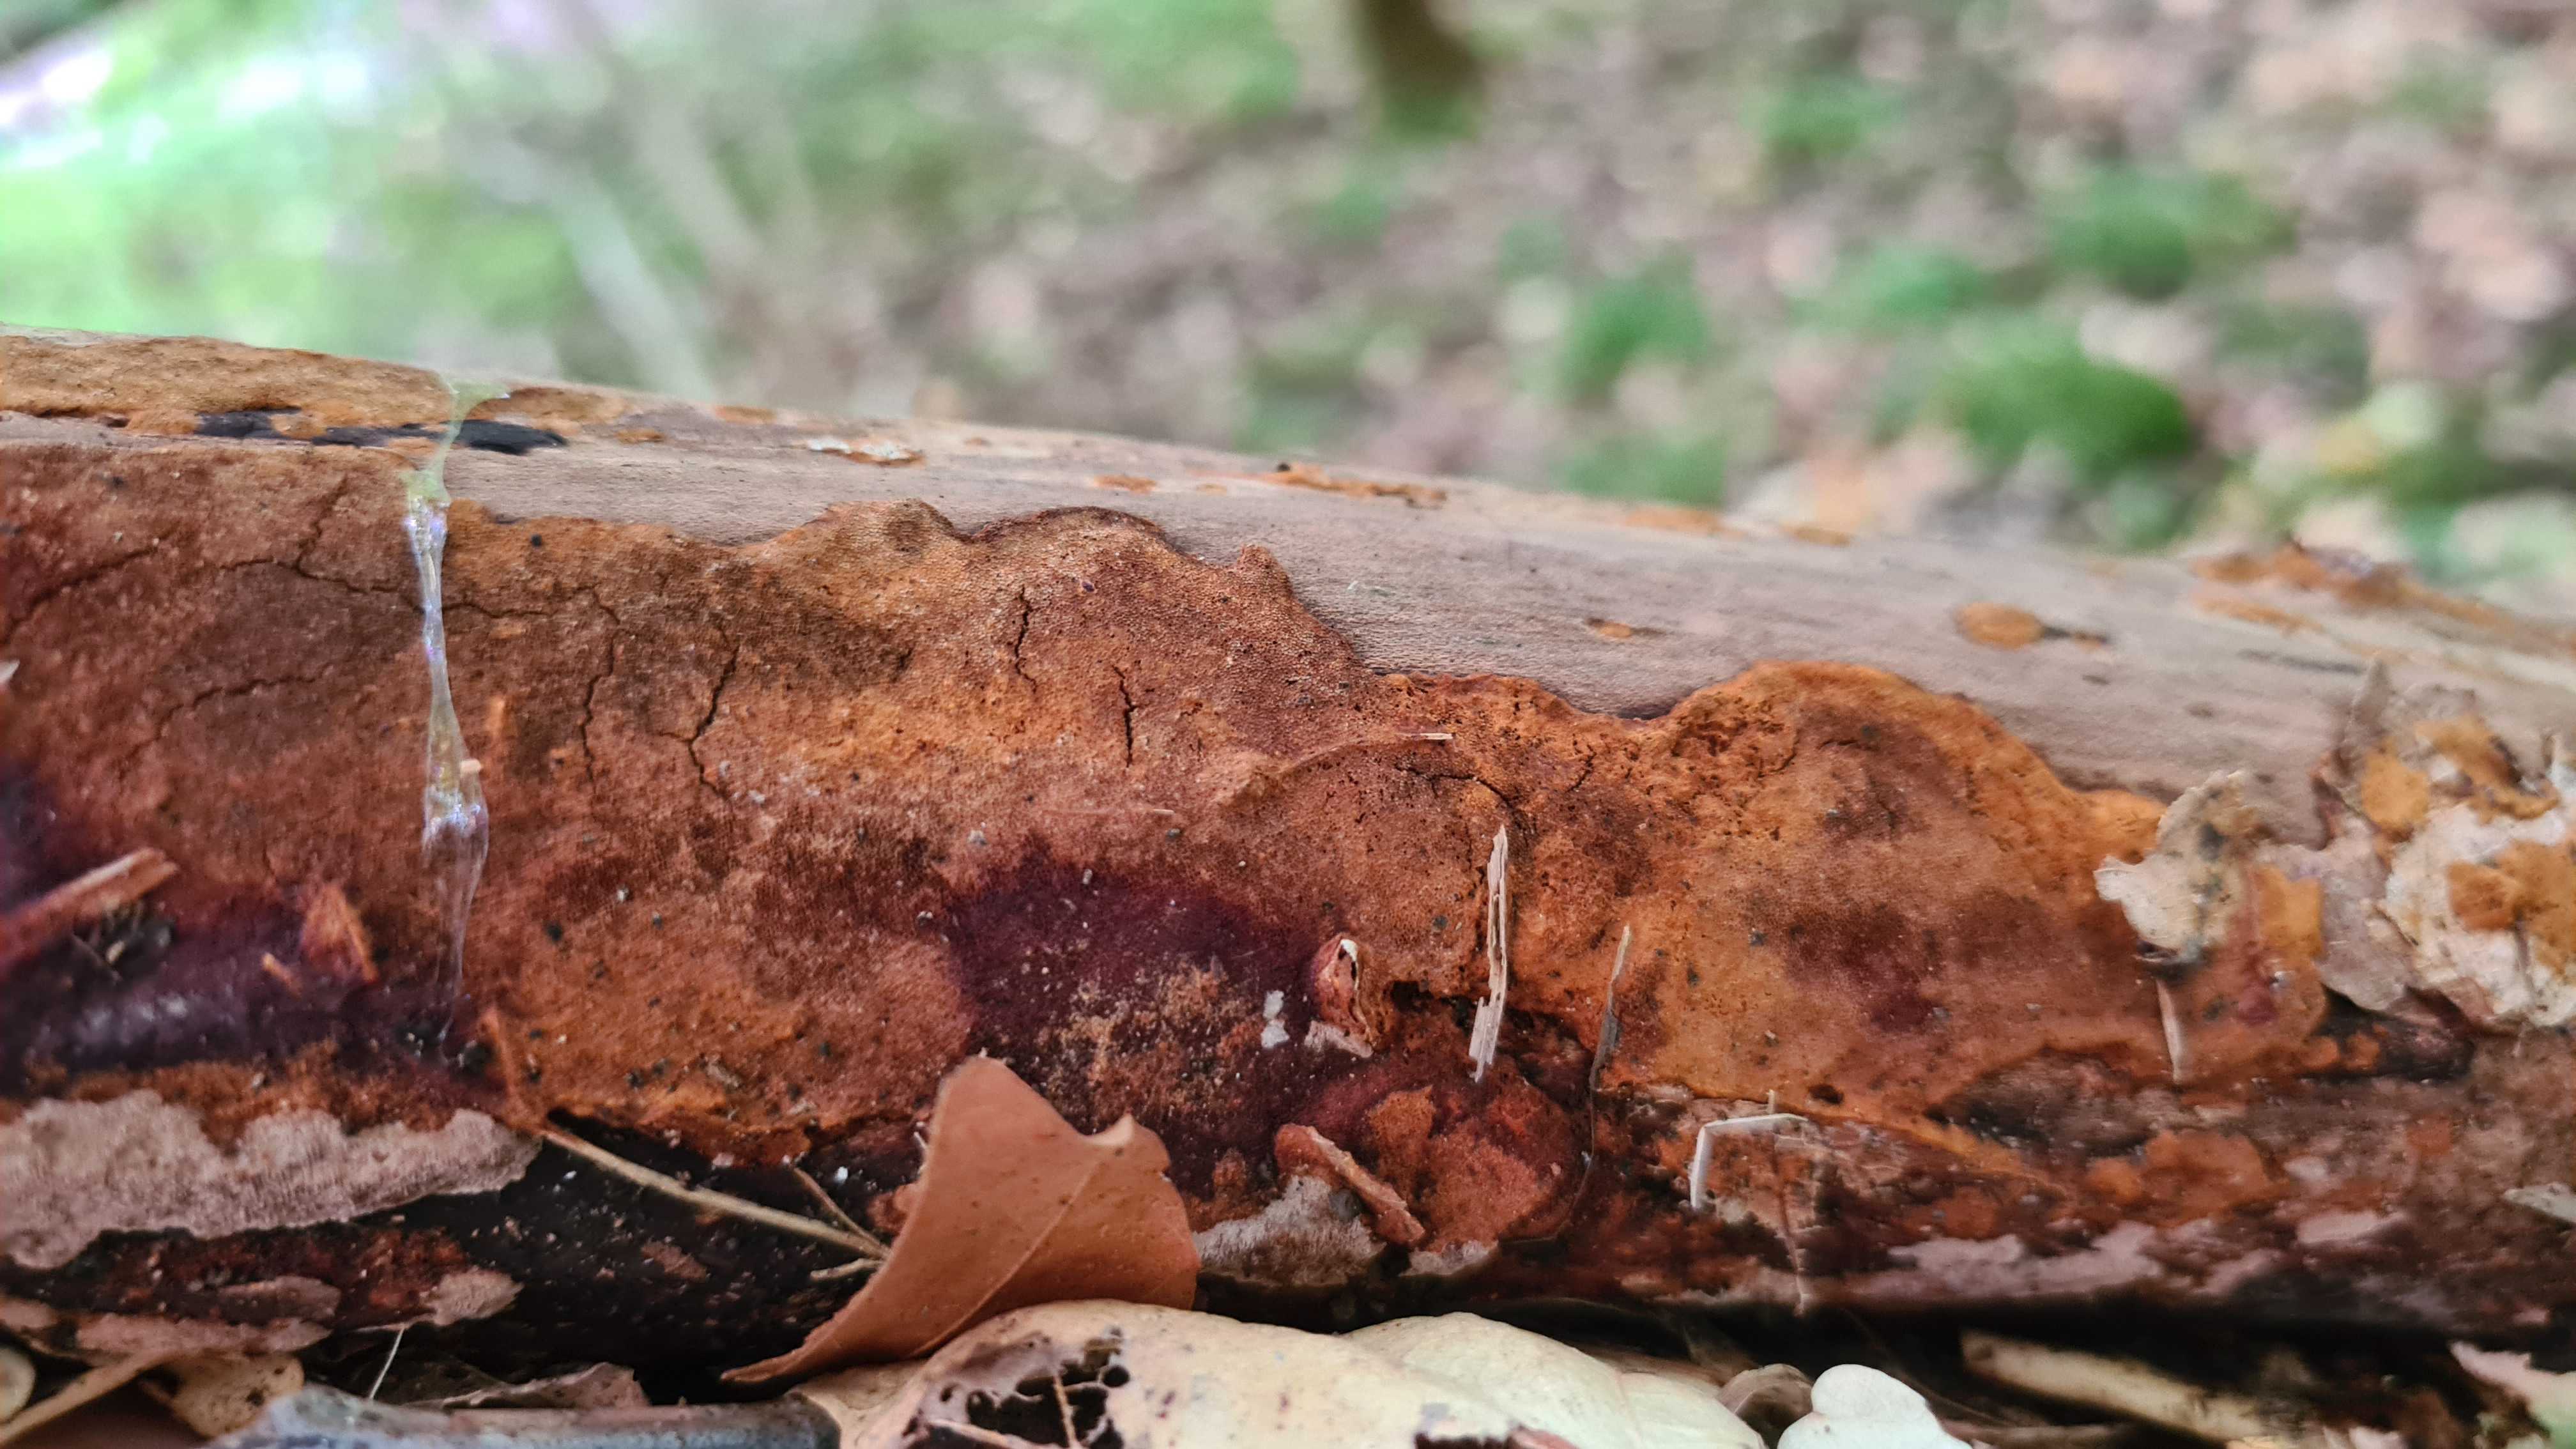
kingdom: Fungi
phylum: Basidiomycota
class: Agaricomycetes
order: Hymenochaetales
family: Hymenochaetaceae
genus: Fuscoporia
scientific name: Fuscoporia ferrea
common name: skorpe-ildporesvamp
